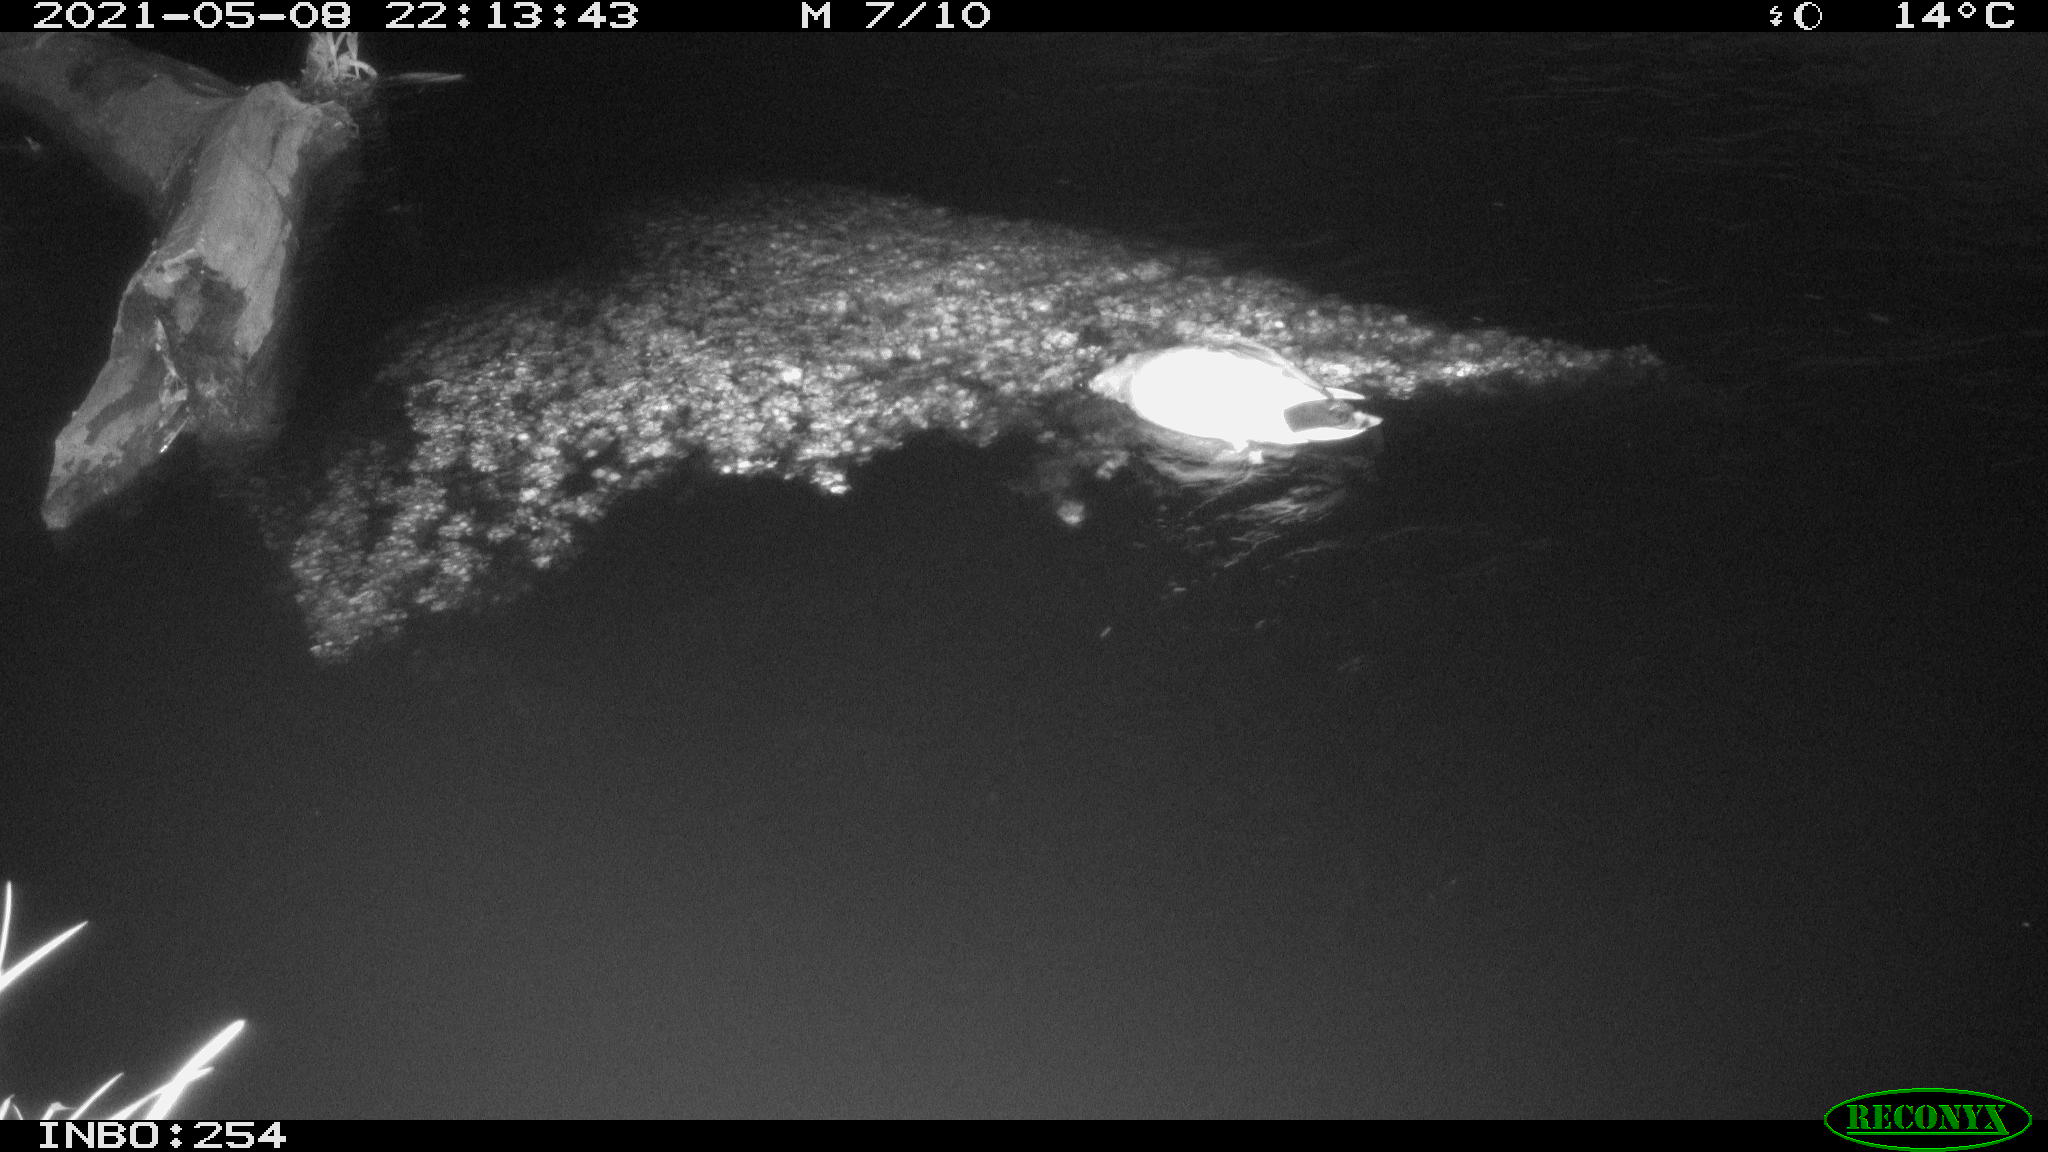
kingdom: Animalia
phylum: Chordata
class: Aves
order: Anseriformes
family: Anatidae
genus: Anas
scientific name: Anas
